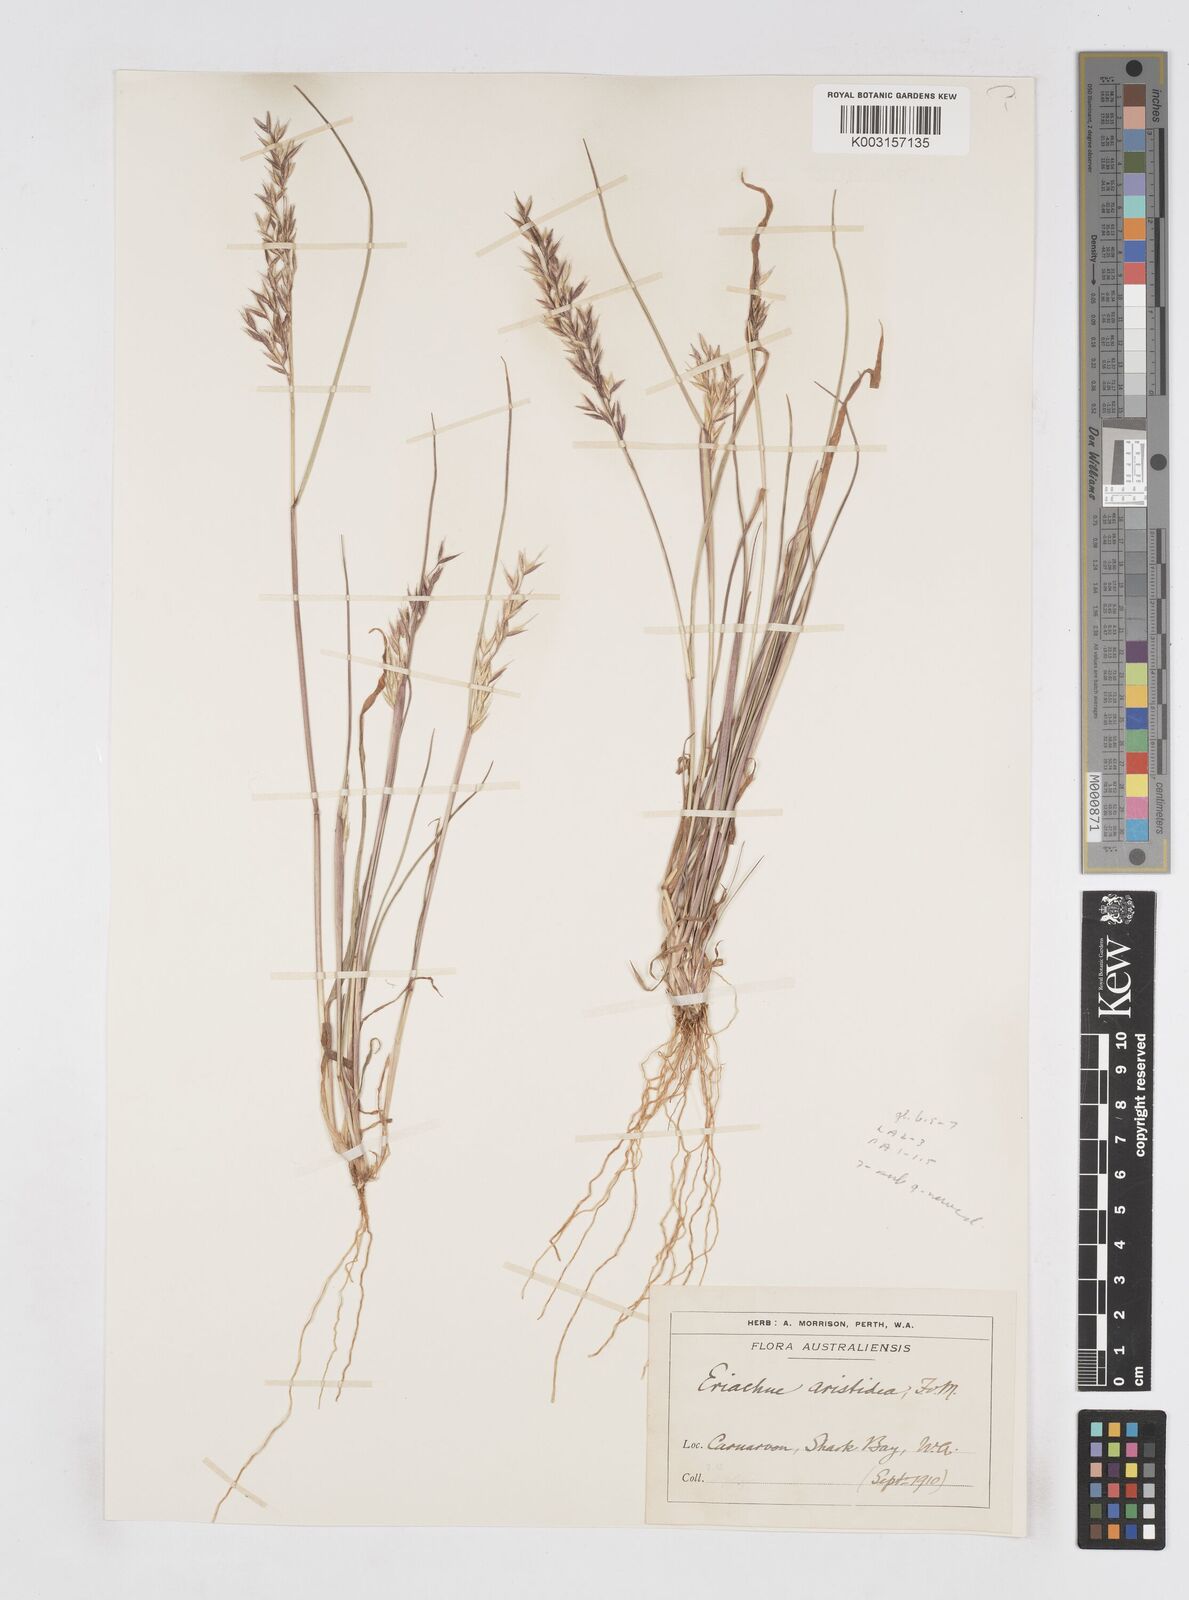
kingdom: Plantae
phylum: Tracheophyta
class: Liliopsida
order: Poales
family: Poaceae
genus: Eriachne
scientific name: Eriachne aristidea
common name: Three-awn wanderrie grass
